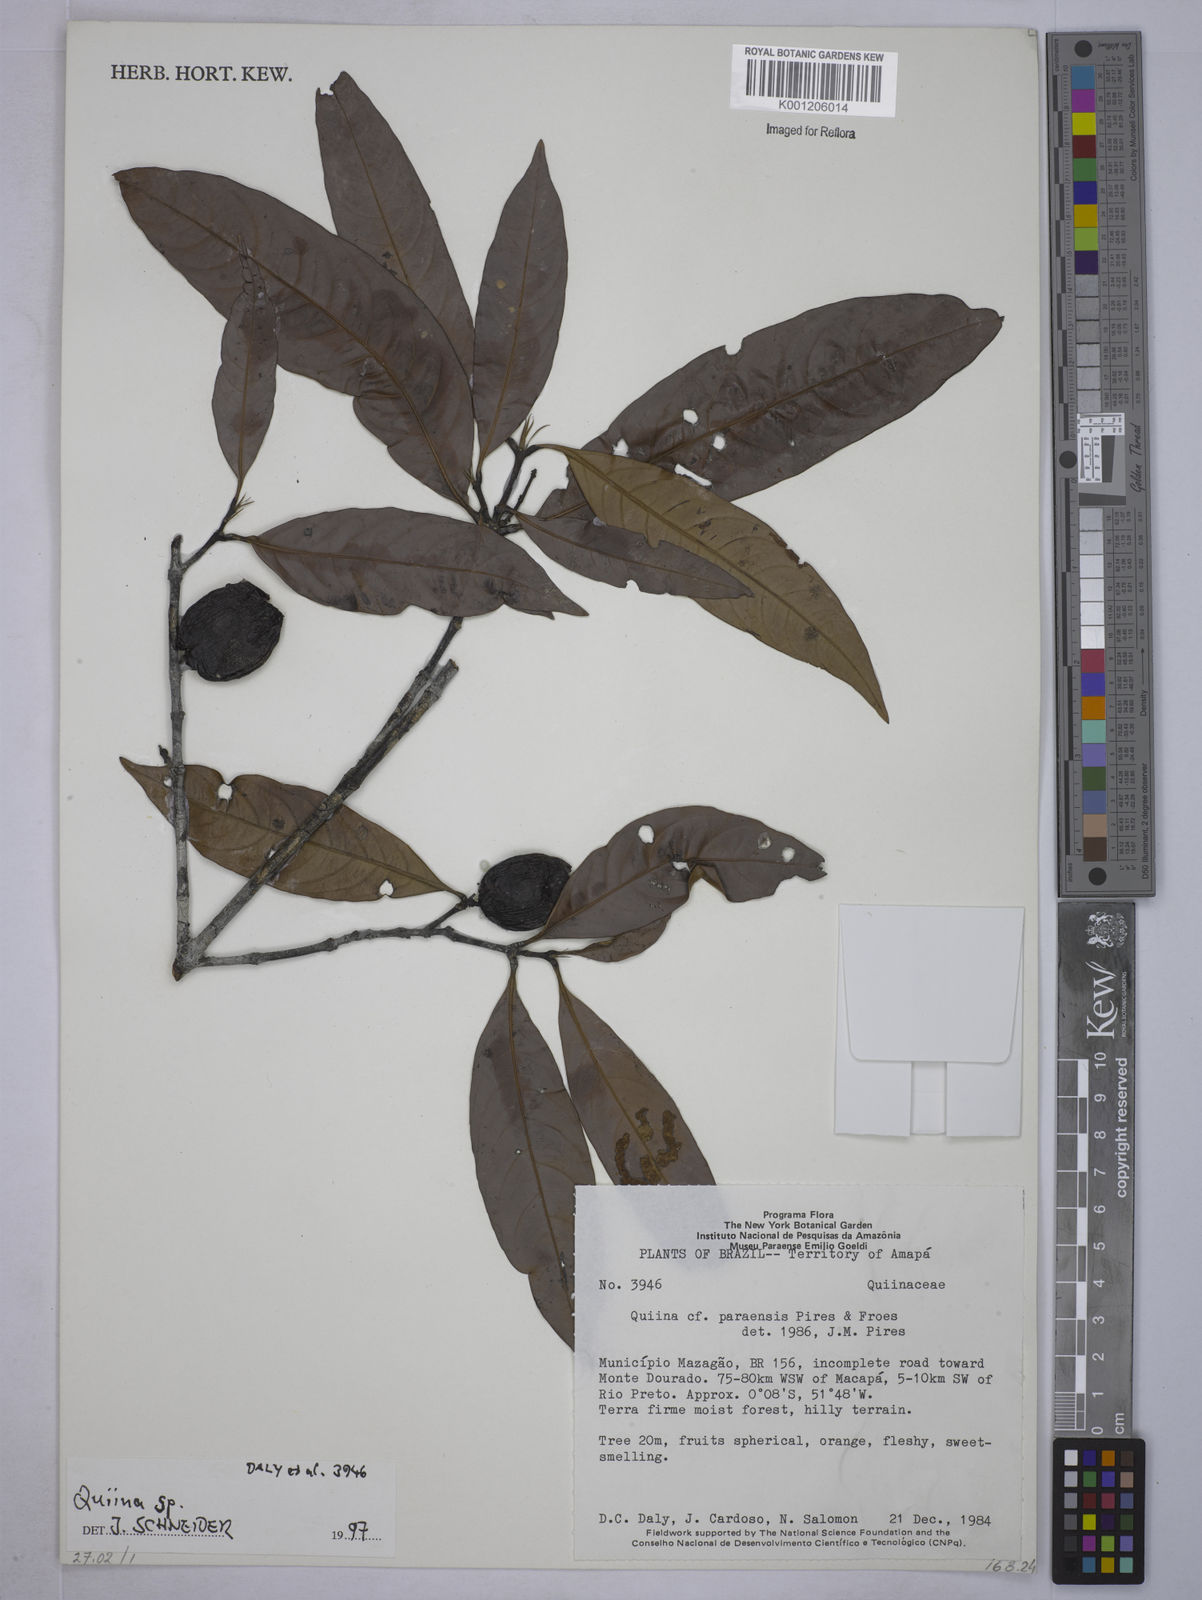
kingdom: Plantae
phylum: Tracheophyta
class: Magnoliopsida
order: Malpighiales
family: Quiinaceae
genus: Quiina
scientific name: Quiina
